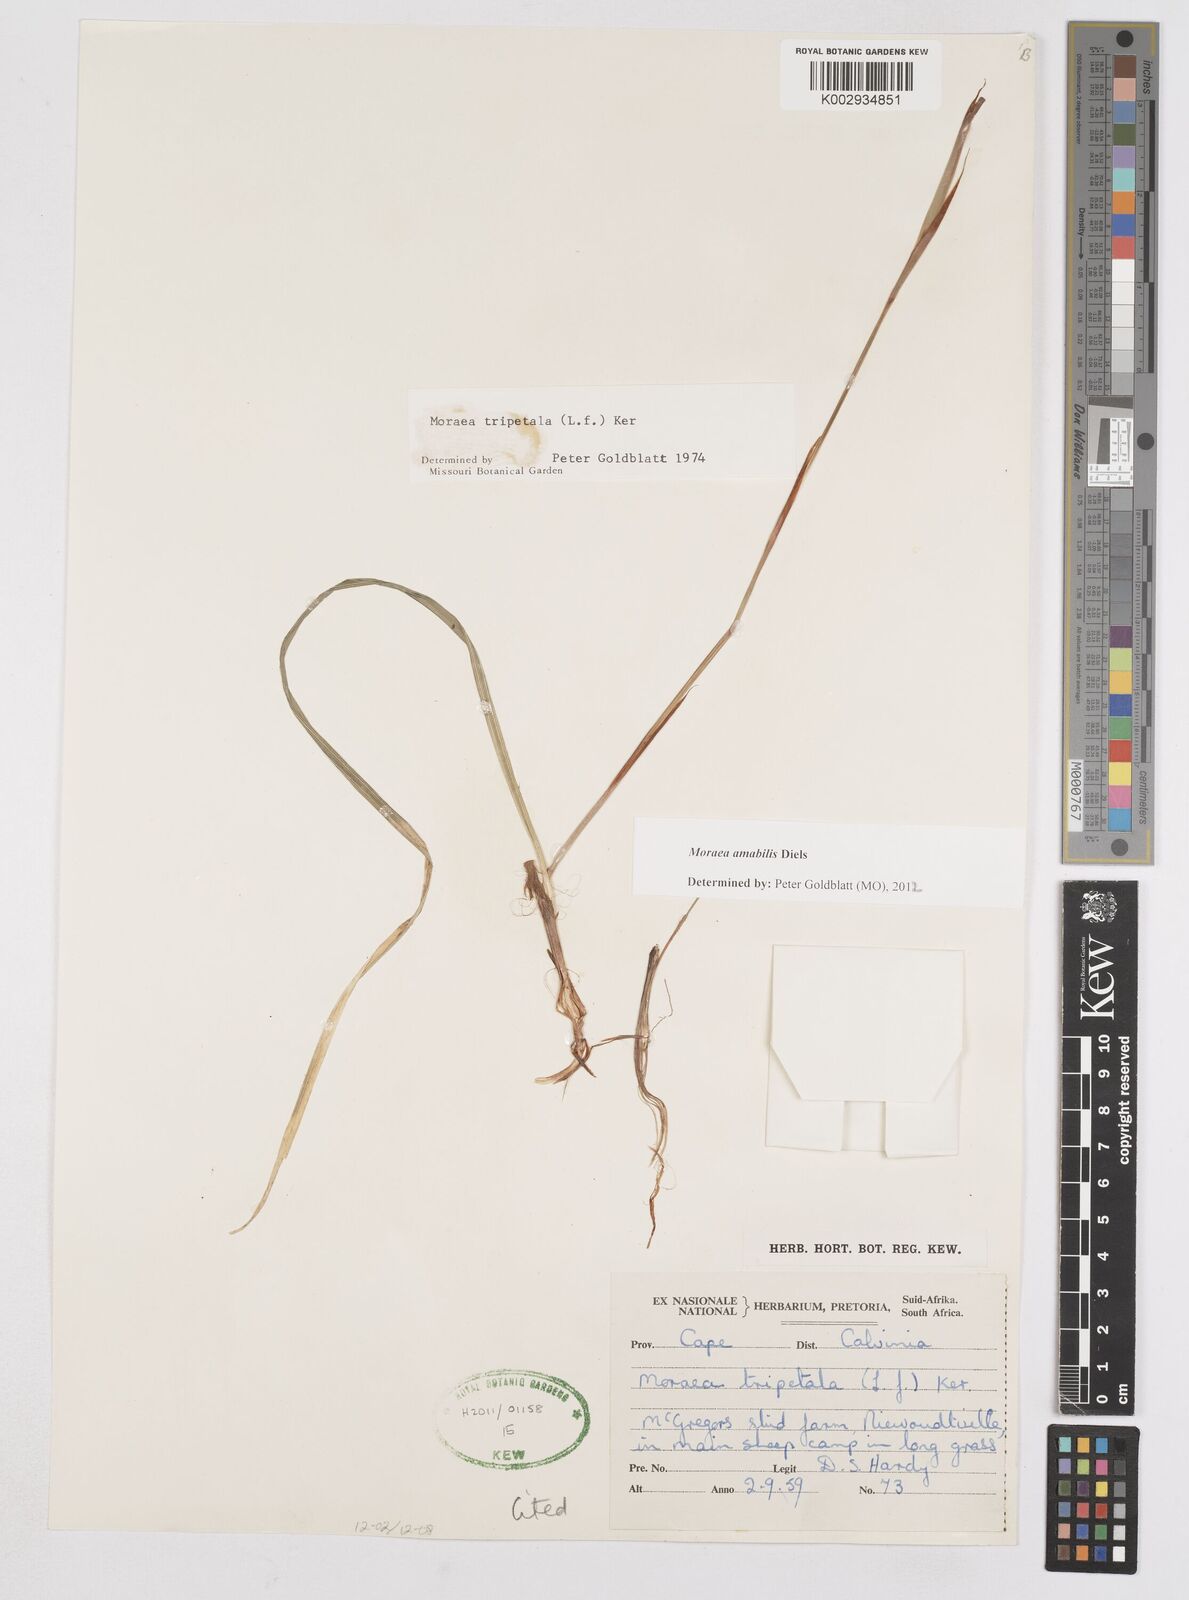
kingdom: Plantae
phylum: Tracheophyta
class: Liliopsida
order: Asparagales
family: Iridaceae
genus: Moraea
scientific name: Moraea amabilis
